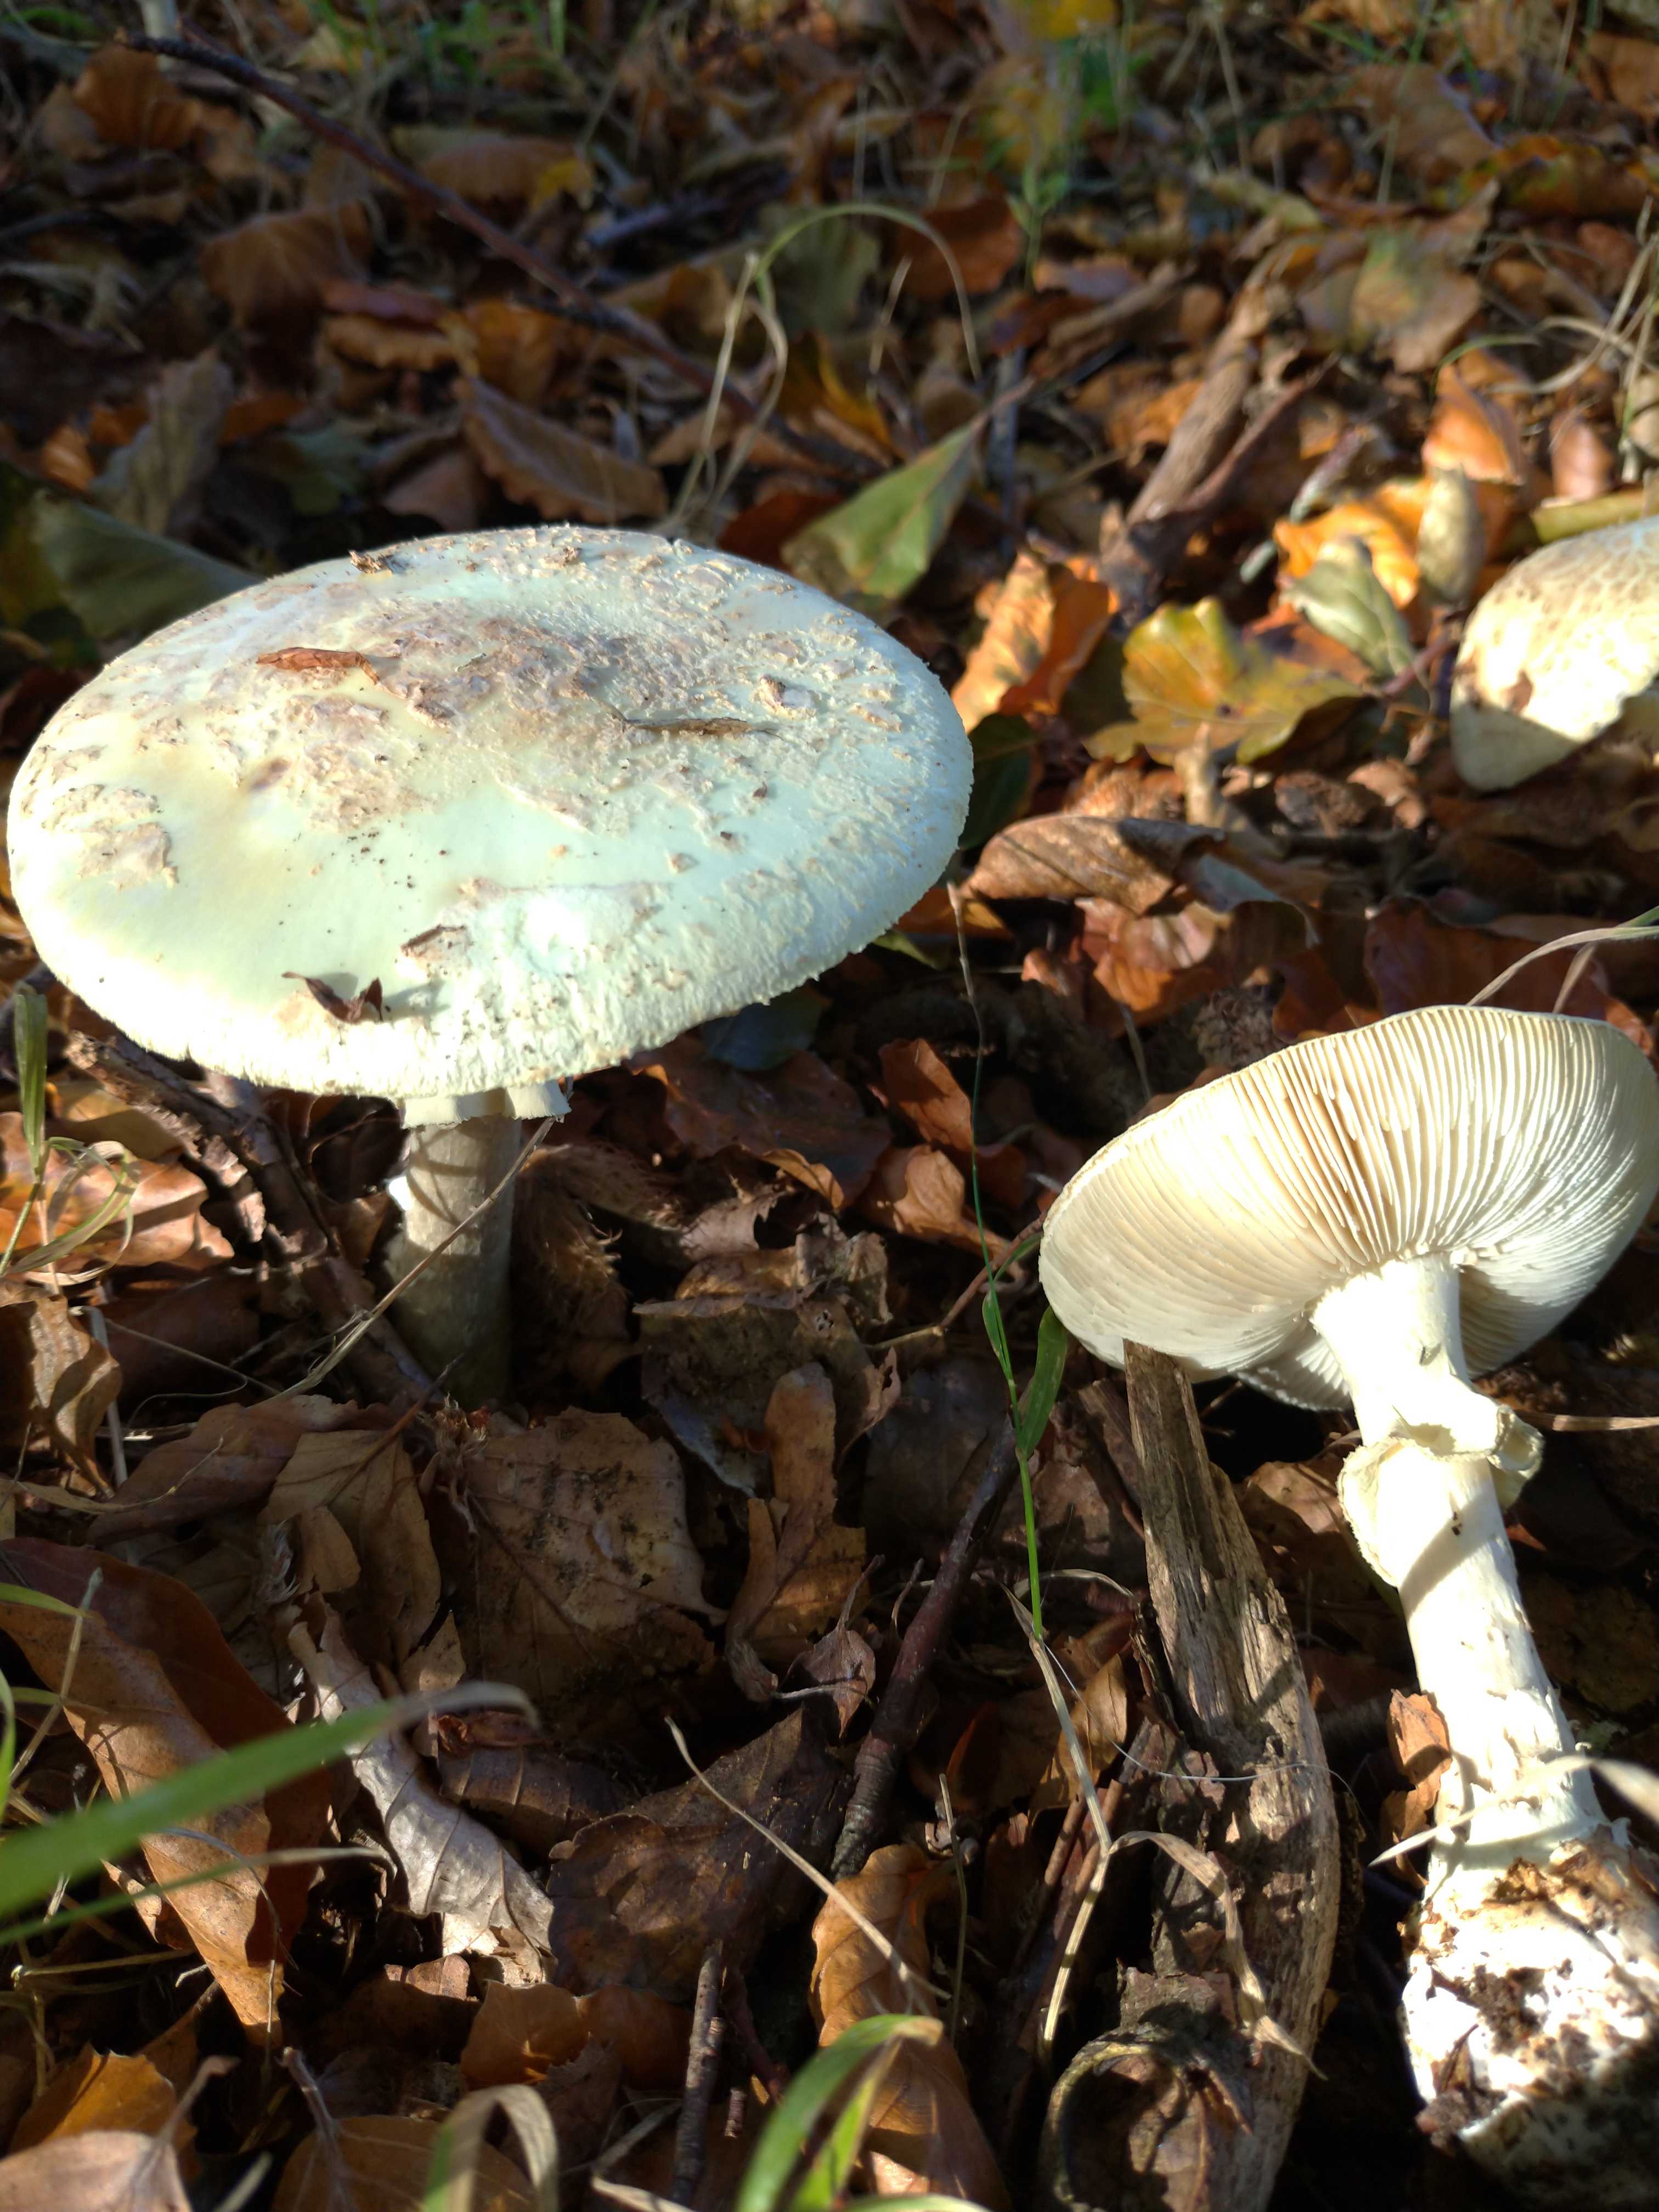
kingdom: Fungi
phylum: Basidiomycota
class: Agaricomycetes
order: Agaricales
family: Amanitaceae
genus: Amanita
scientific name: Amanita citrina
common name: kugleknoldet fluesvamp
